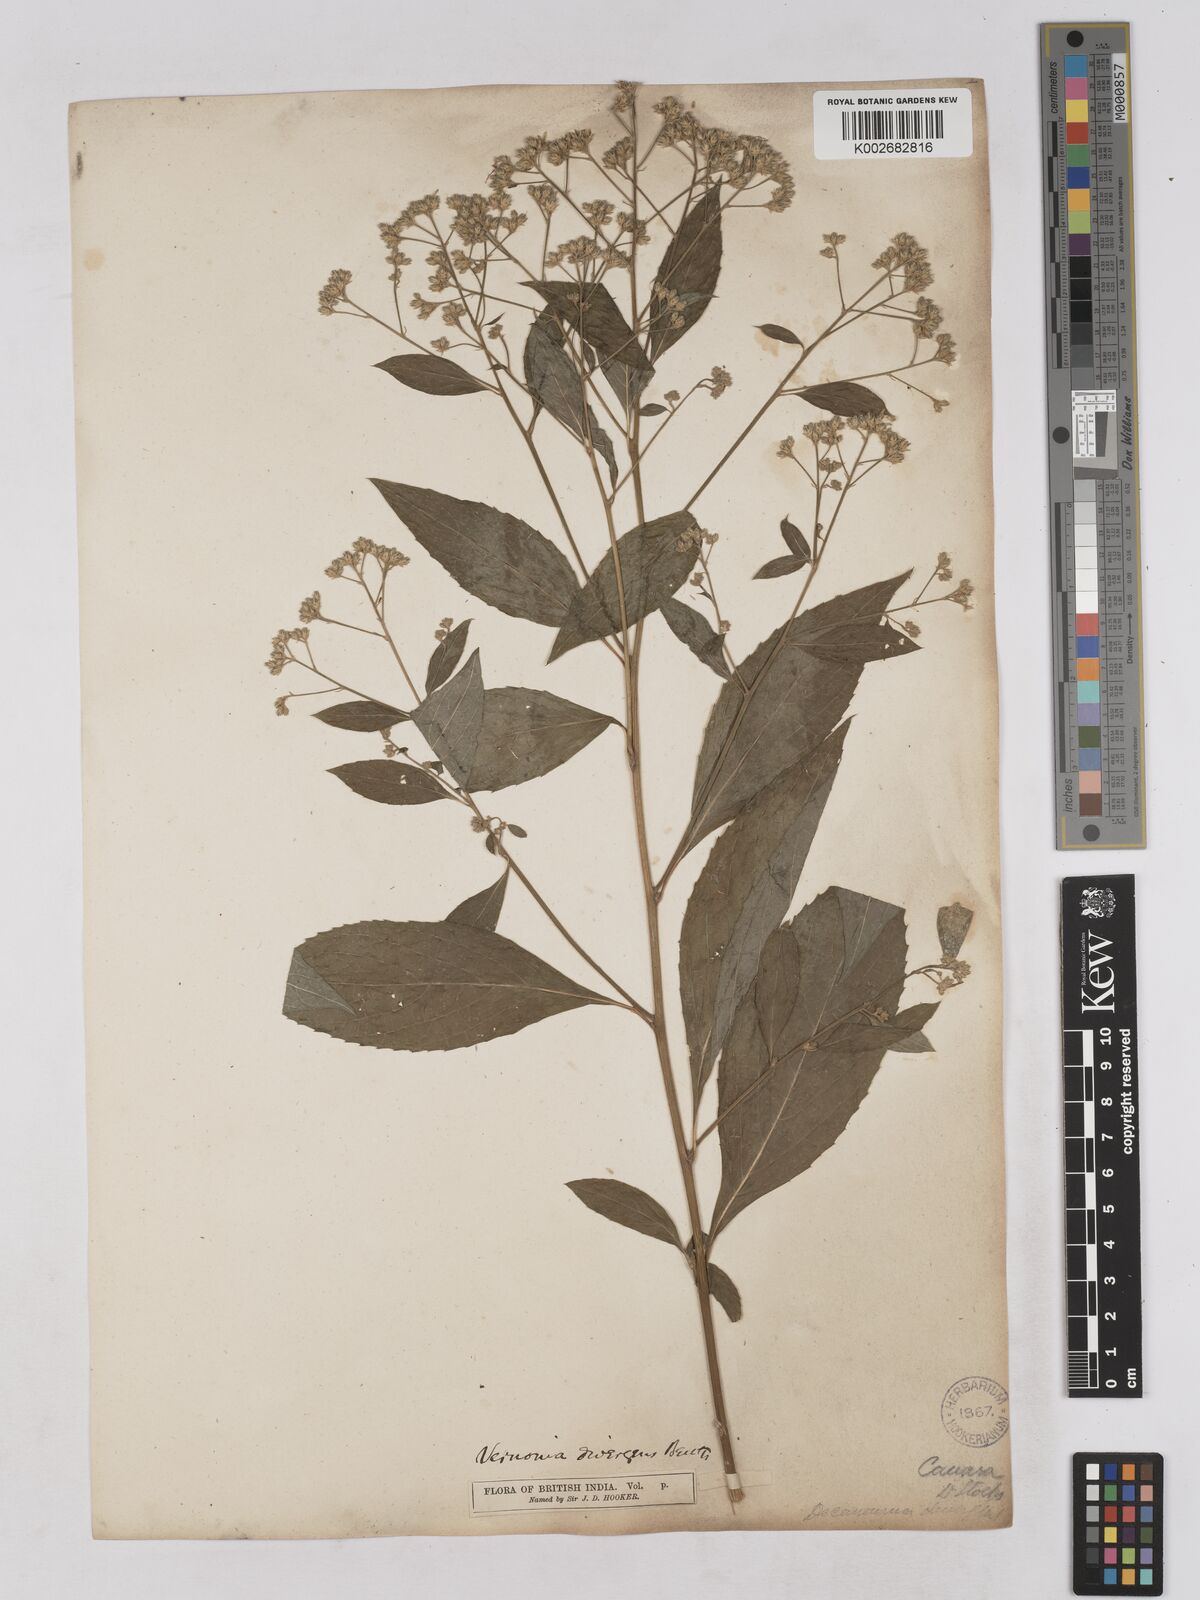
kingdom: Plantae
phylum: Tracheophyta
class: Magnoliopsida
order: Asterales
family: Asteraceae
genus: Acilepis
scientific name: Acilepis divergens
